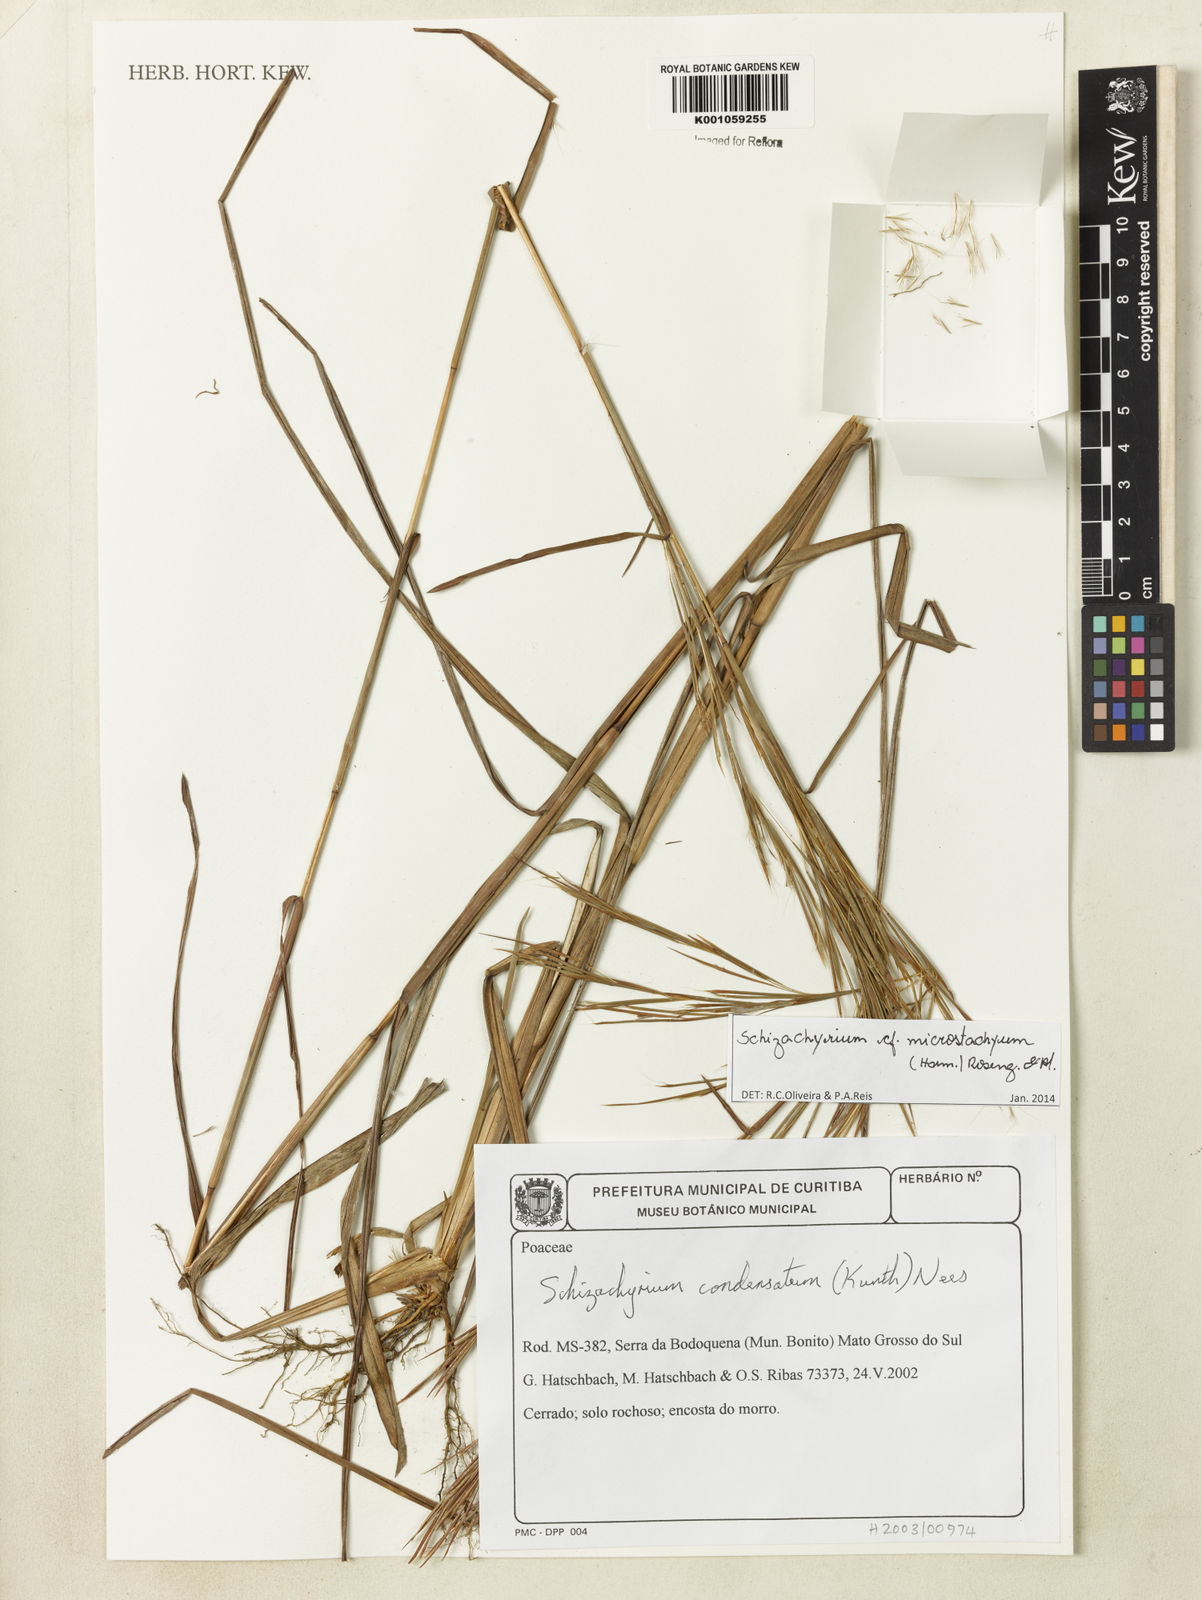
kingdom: Plantae
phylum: Tracheophyta
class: Liliopsida
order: Poales
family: Poaceae
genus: Schizachyrium
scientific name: Schizachyrium
